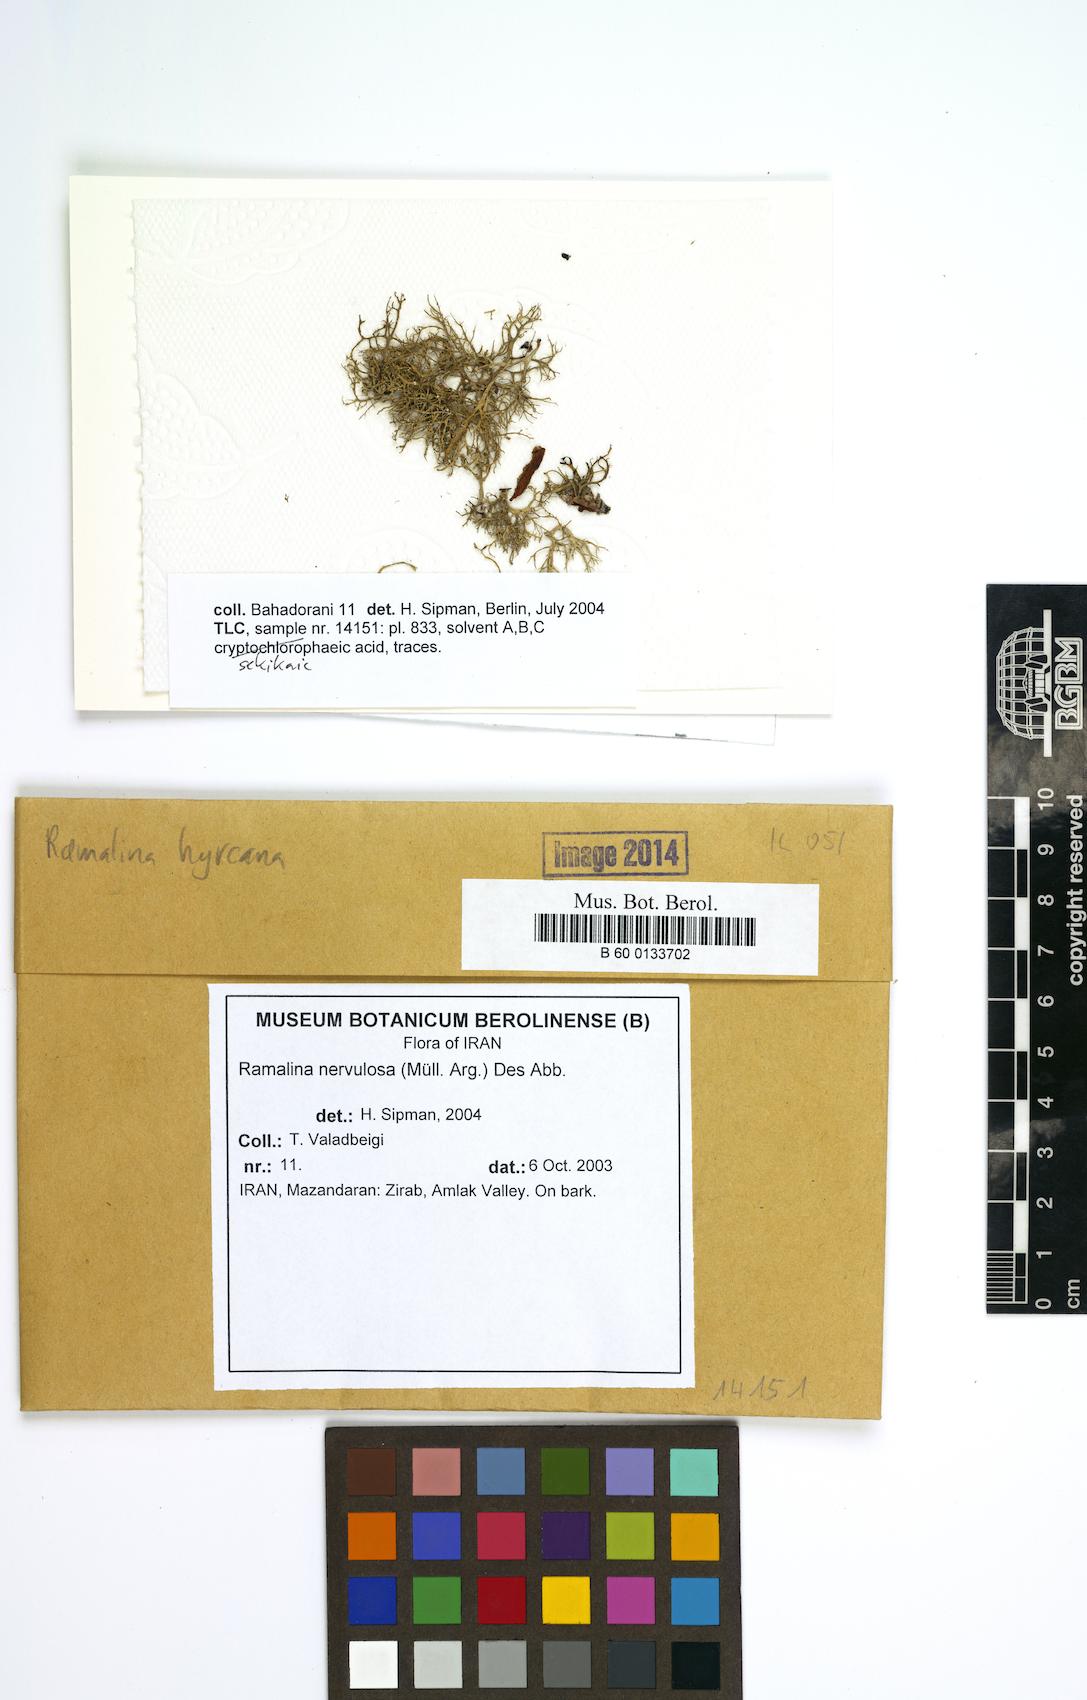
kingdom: Fungi
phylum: Ascomycota
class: Lecanoromycetes
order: Lecanorales
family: Ramalinaceae
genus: Ramalina
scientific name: Ramalina nervulosa
